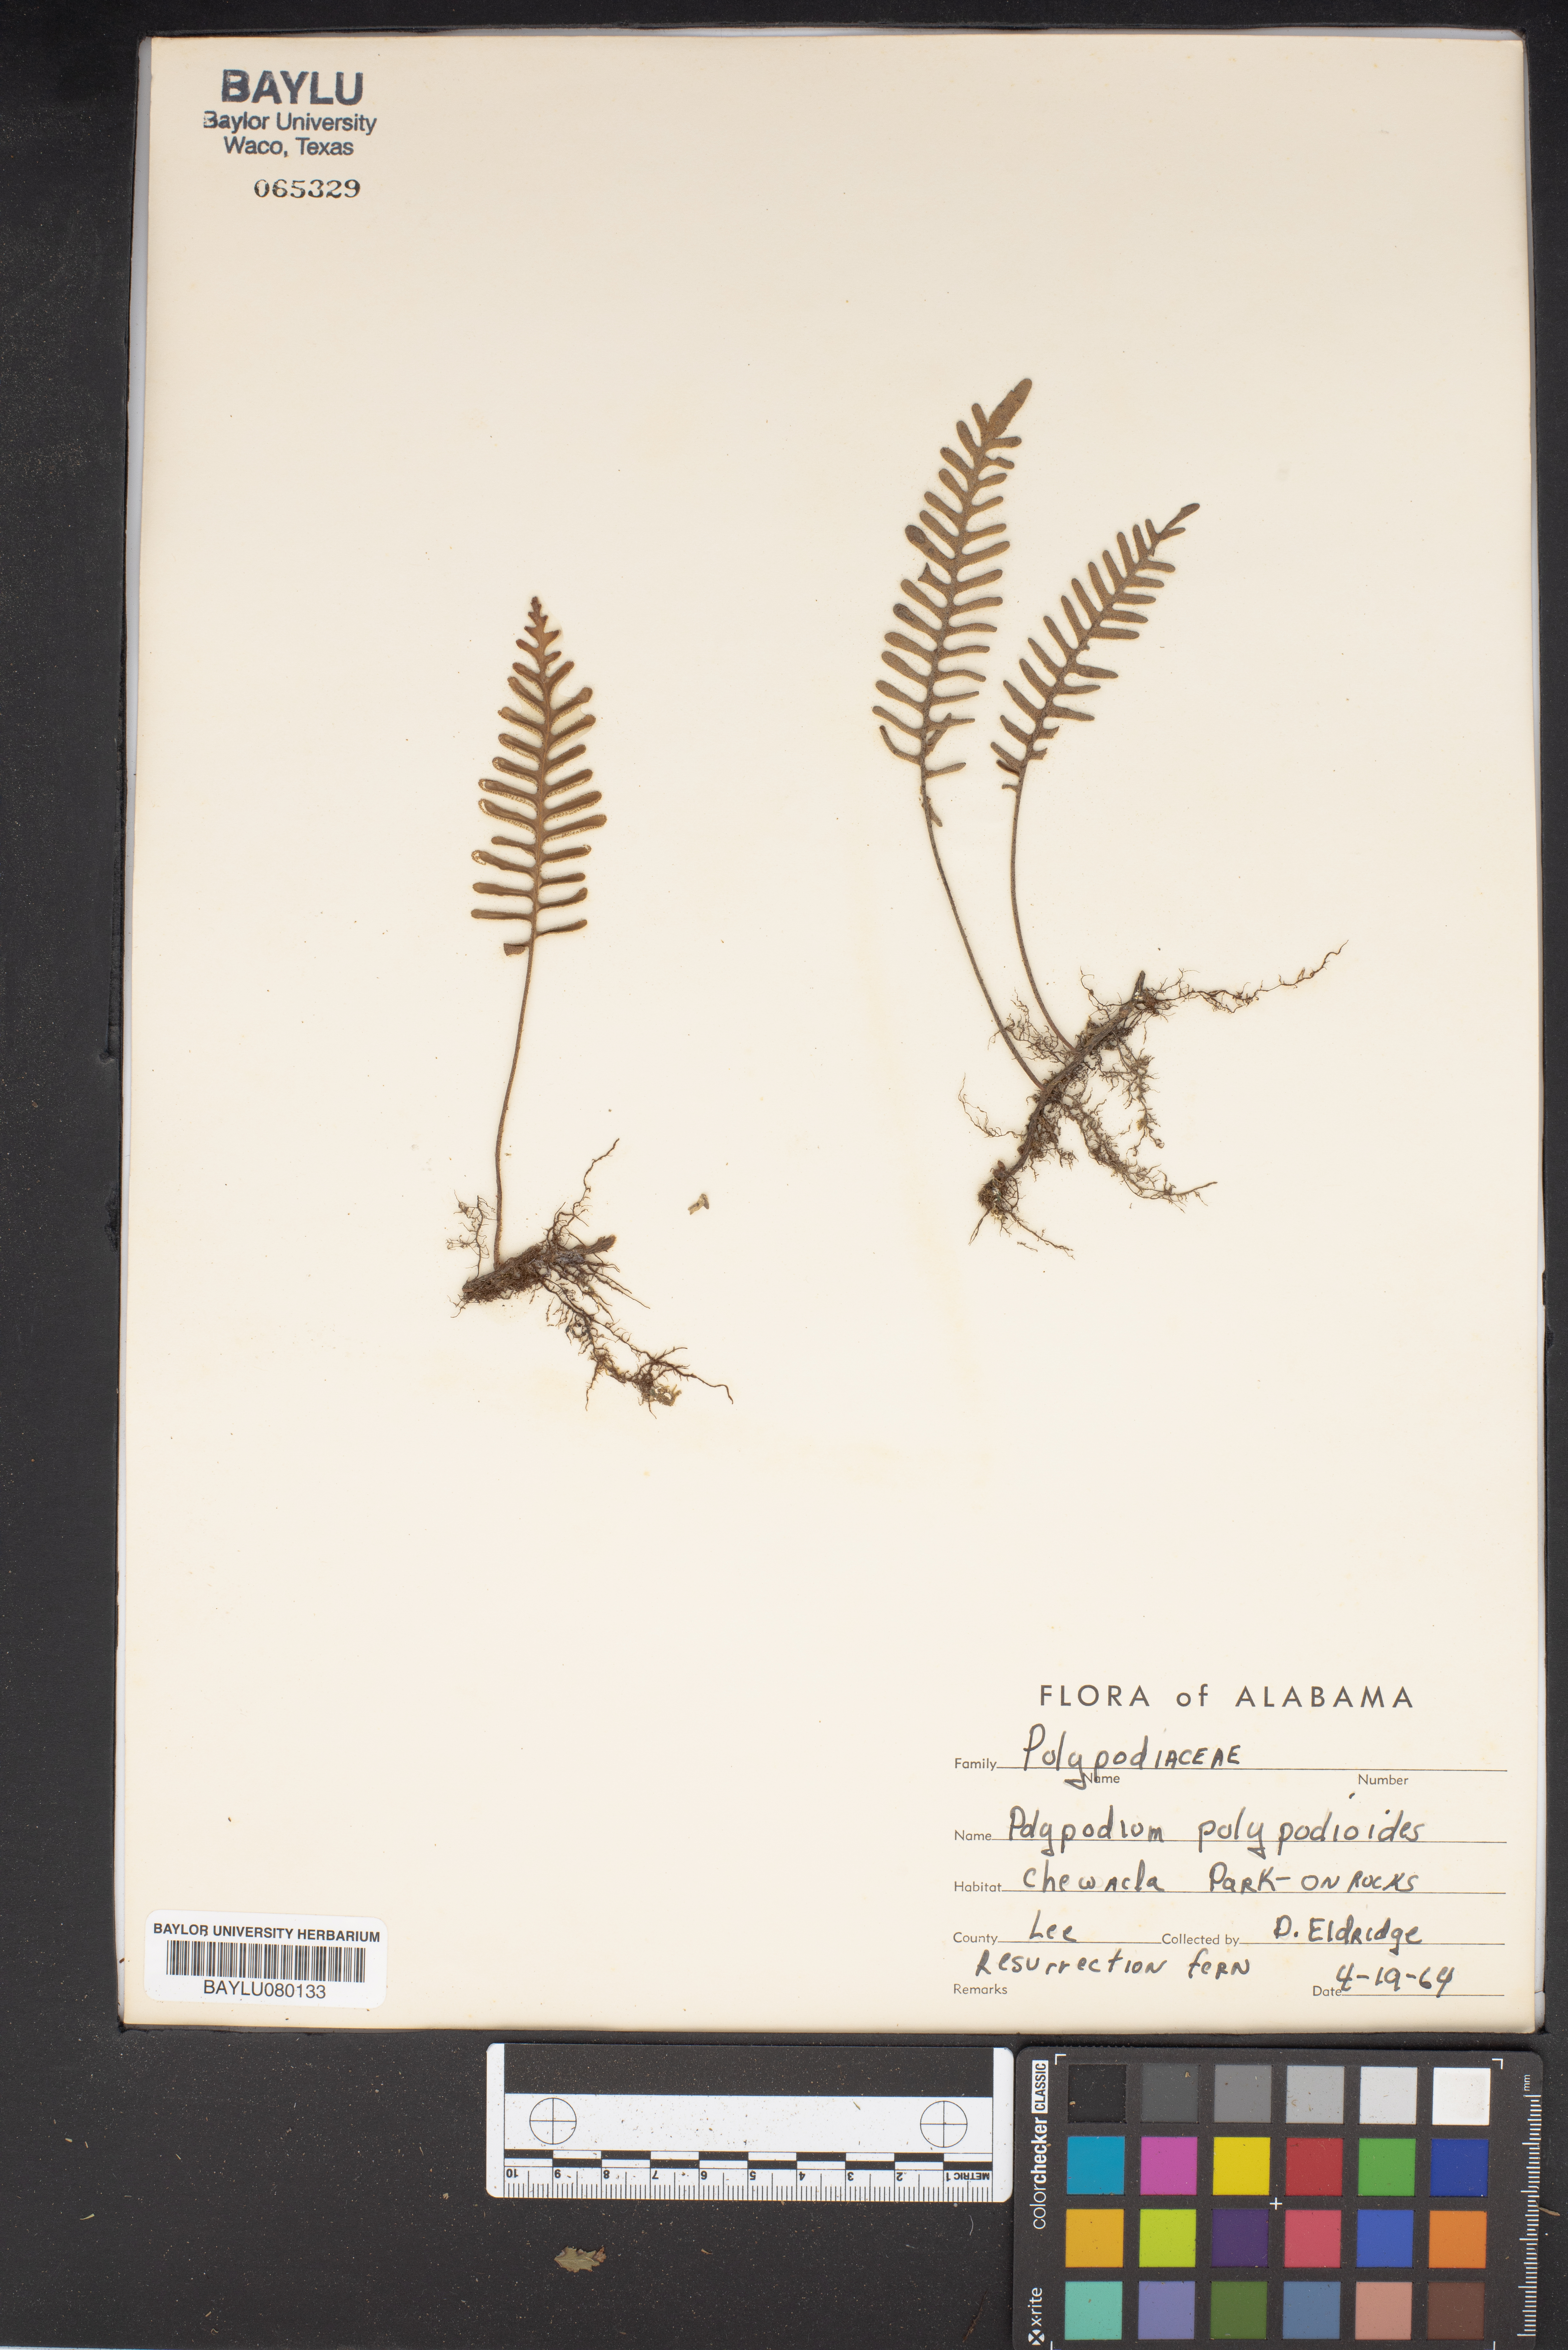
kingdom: Plantae
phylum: Tracheophyta
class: Polypodiopsida
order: Polypodiales
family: Polypodiaceae
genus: Pleopeltis
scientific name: Pleopeltis polypodioides
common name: Resurrection fern
